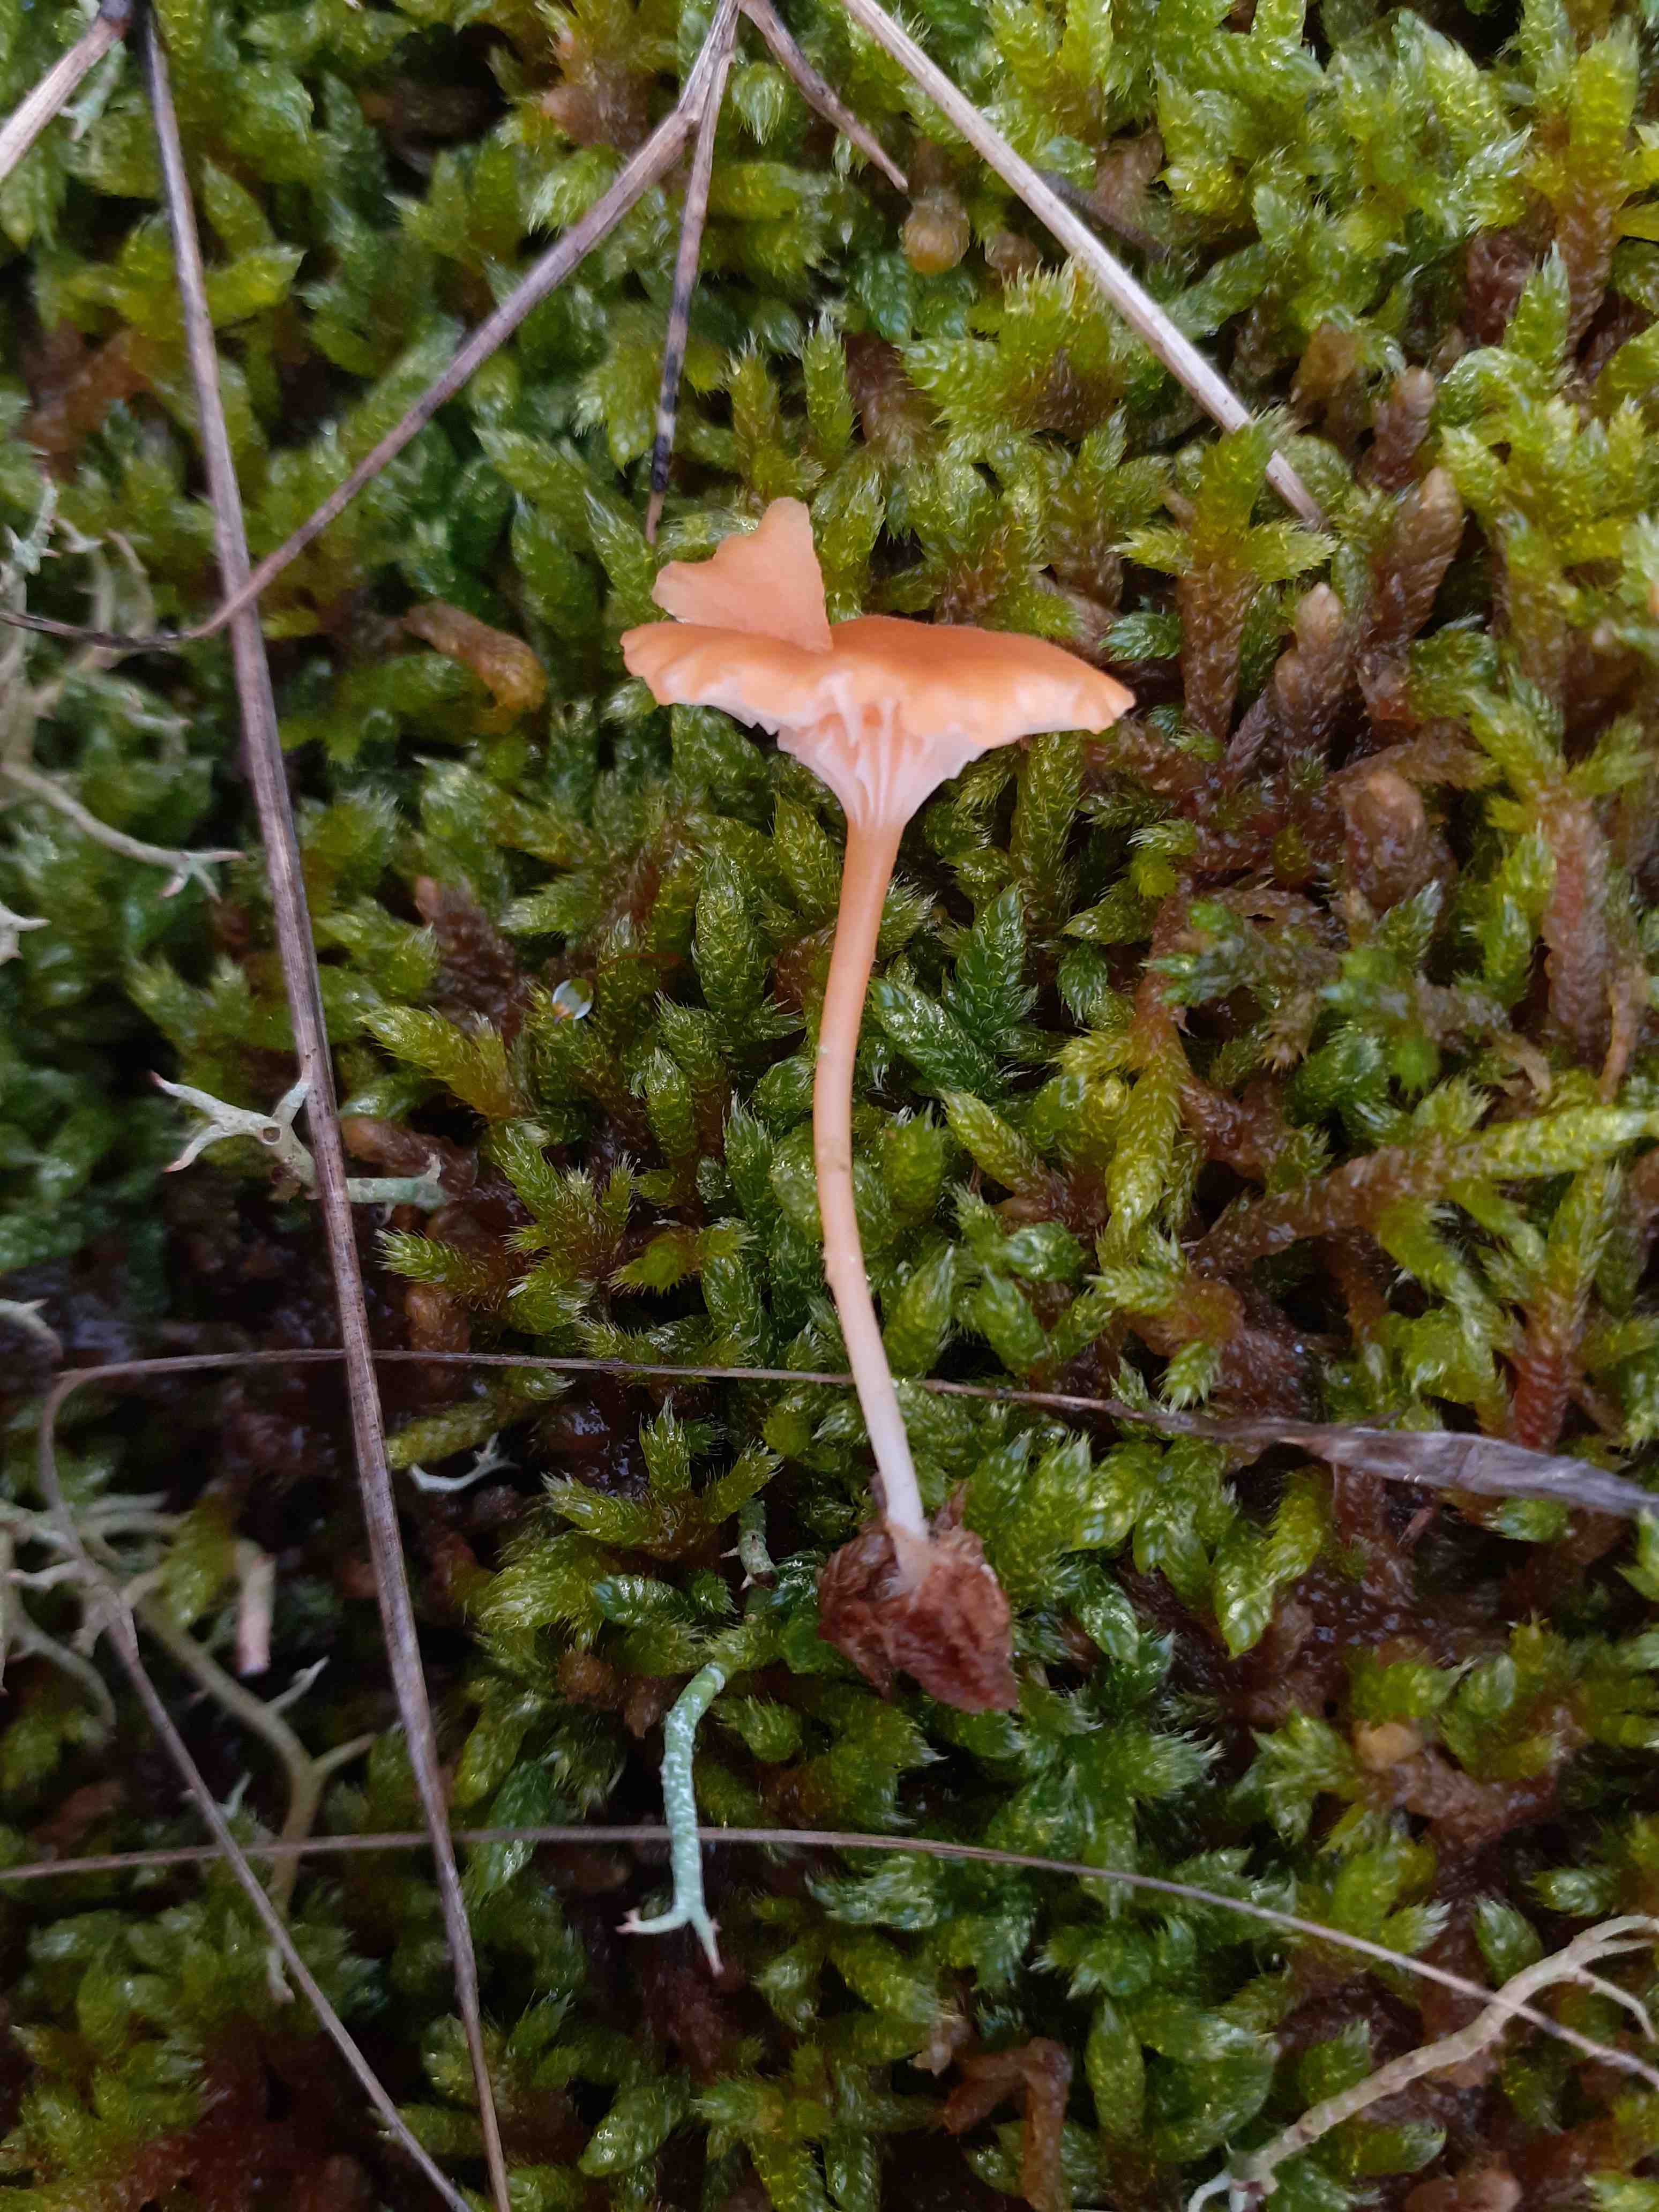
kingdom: Fungi
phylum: Basidiomycota
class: Agaricomycetes
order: Hymenochaetales
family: Rickenellaceae
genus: Rickenella
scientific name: Rickenella fibula
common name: orange mosnavlehat
